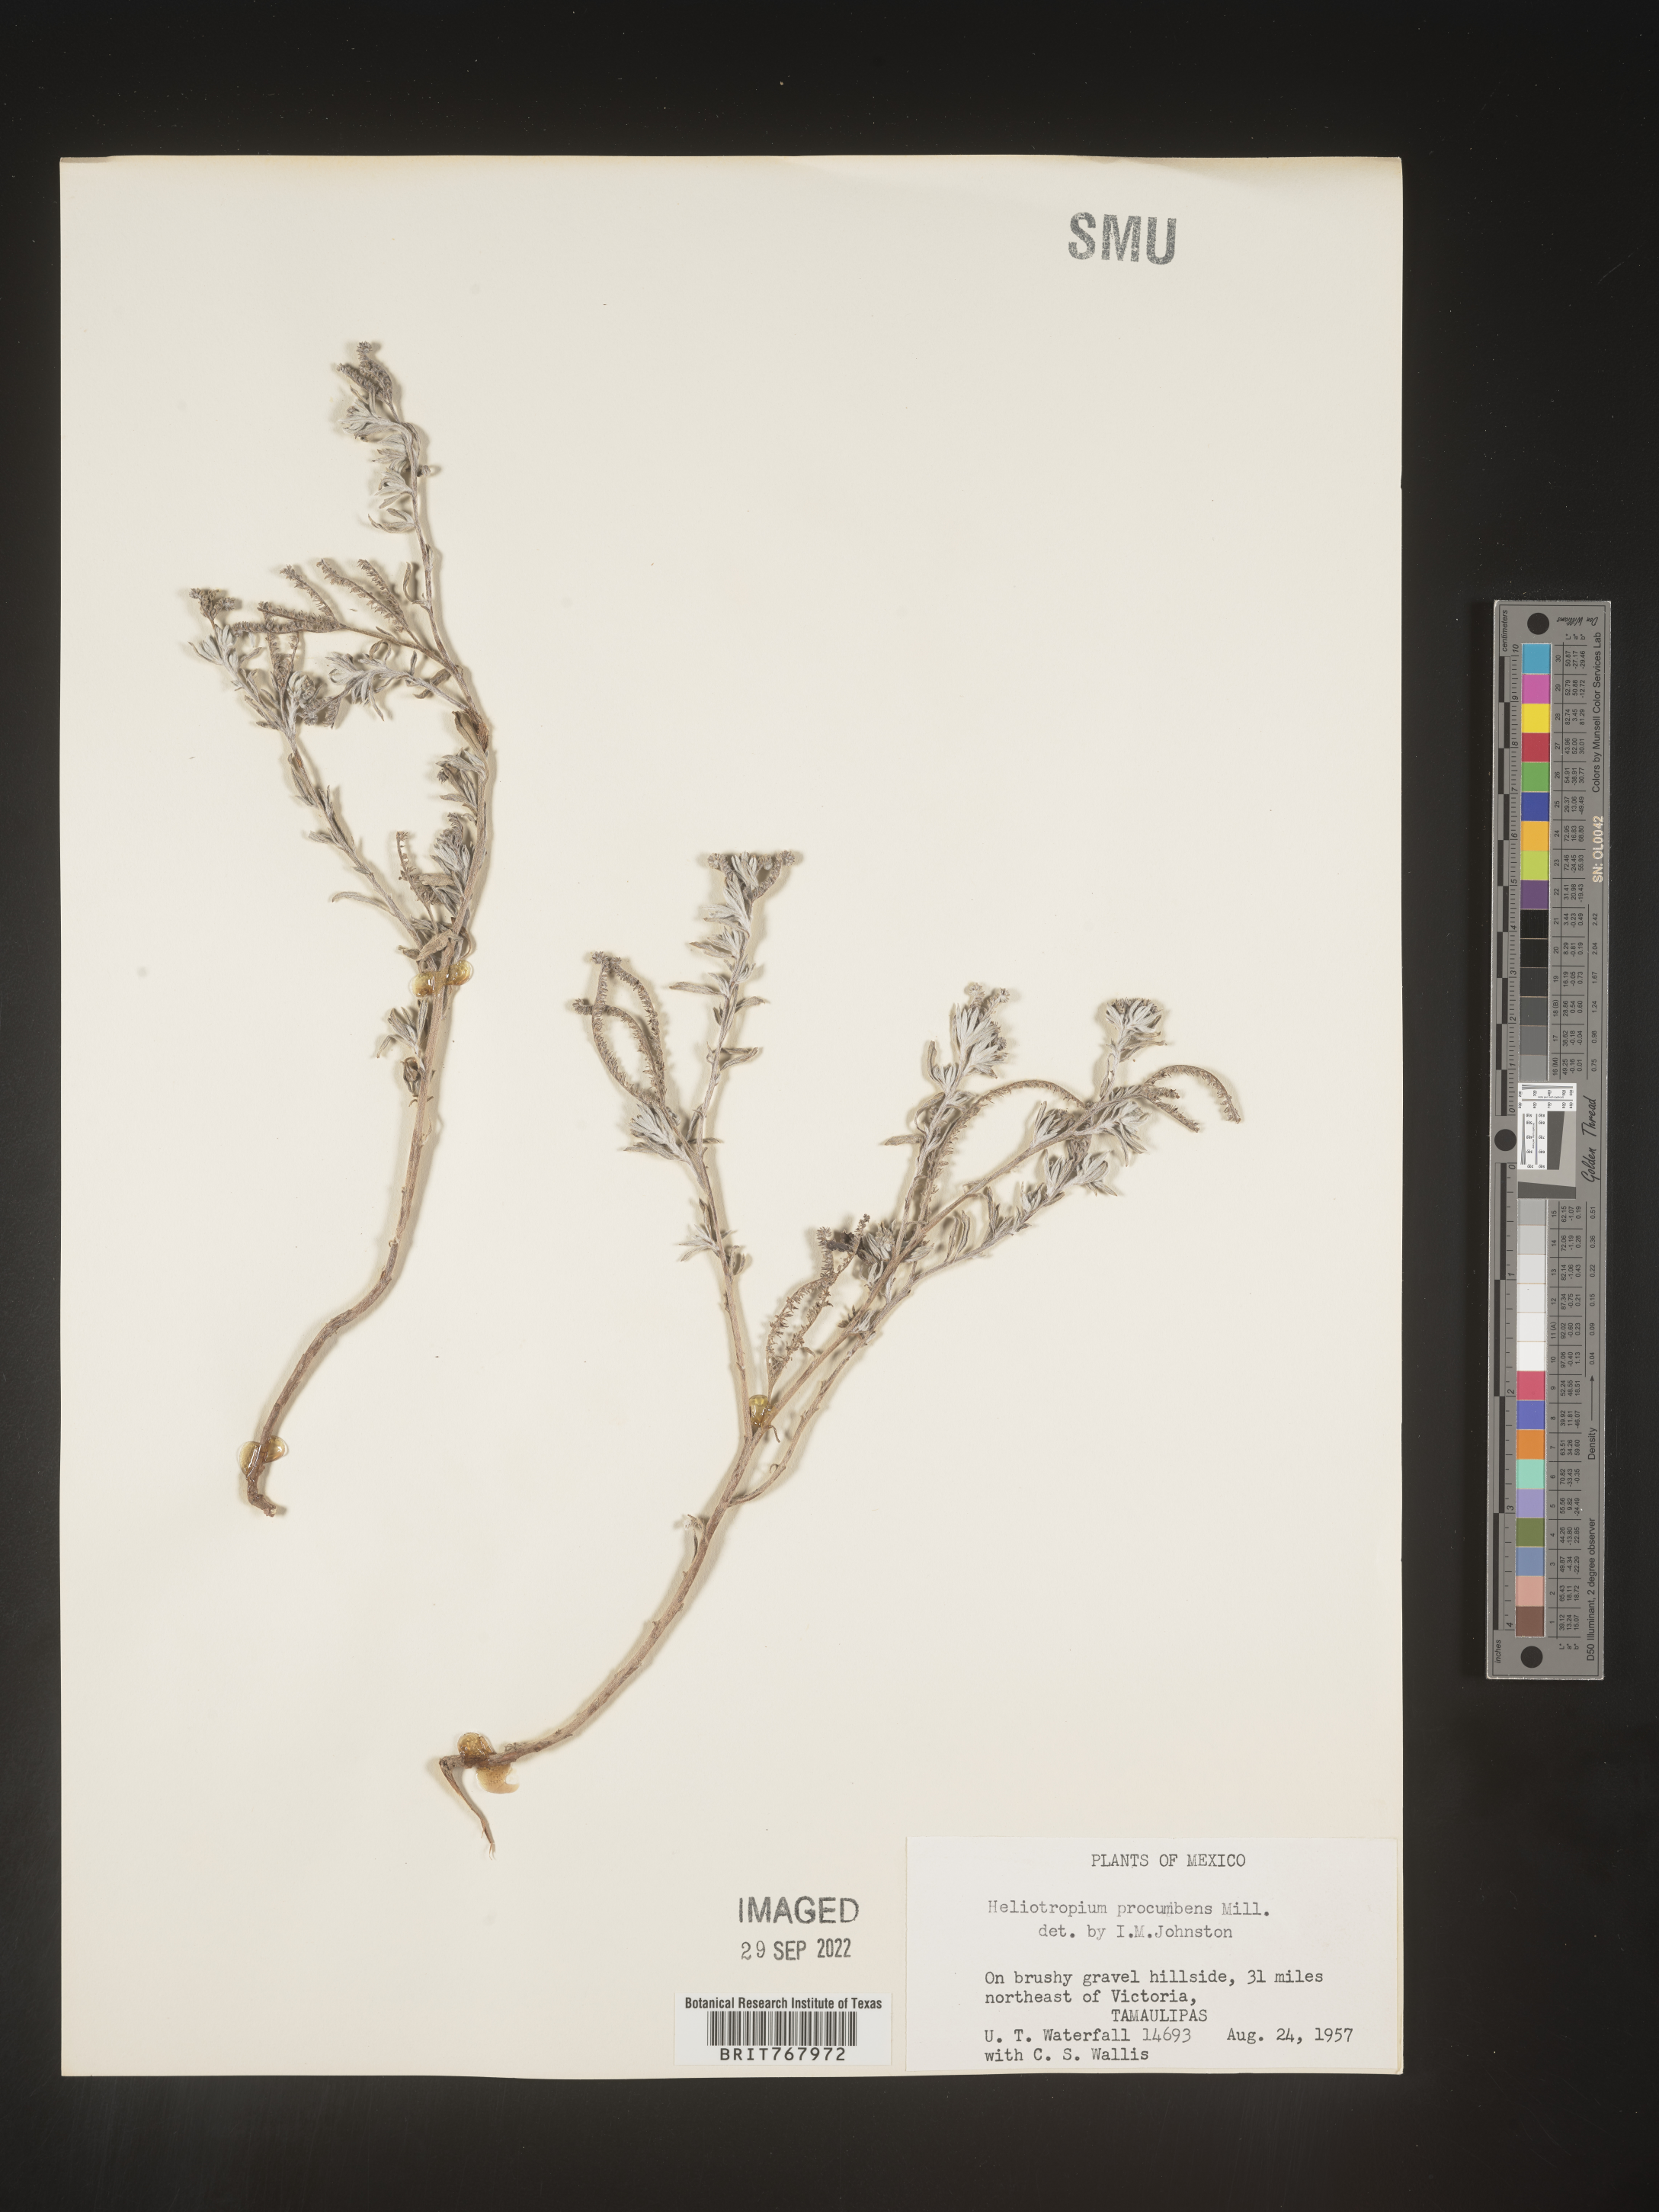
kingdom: Plantae
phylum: Tracheophyta
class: Magnoliopsida
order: Boraginales
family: Heliotropiaceae
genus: Heliotropium
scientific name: Heliotropium
